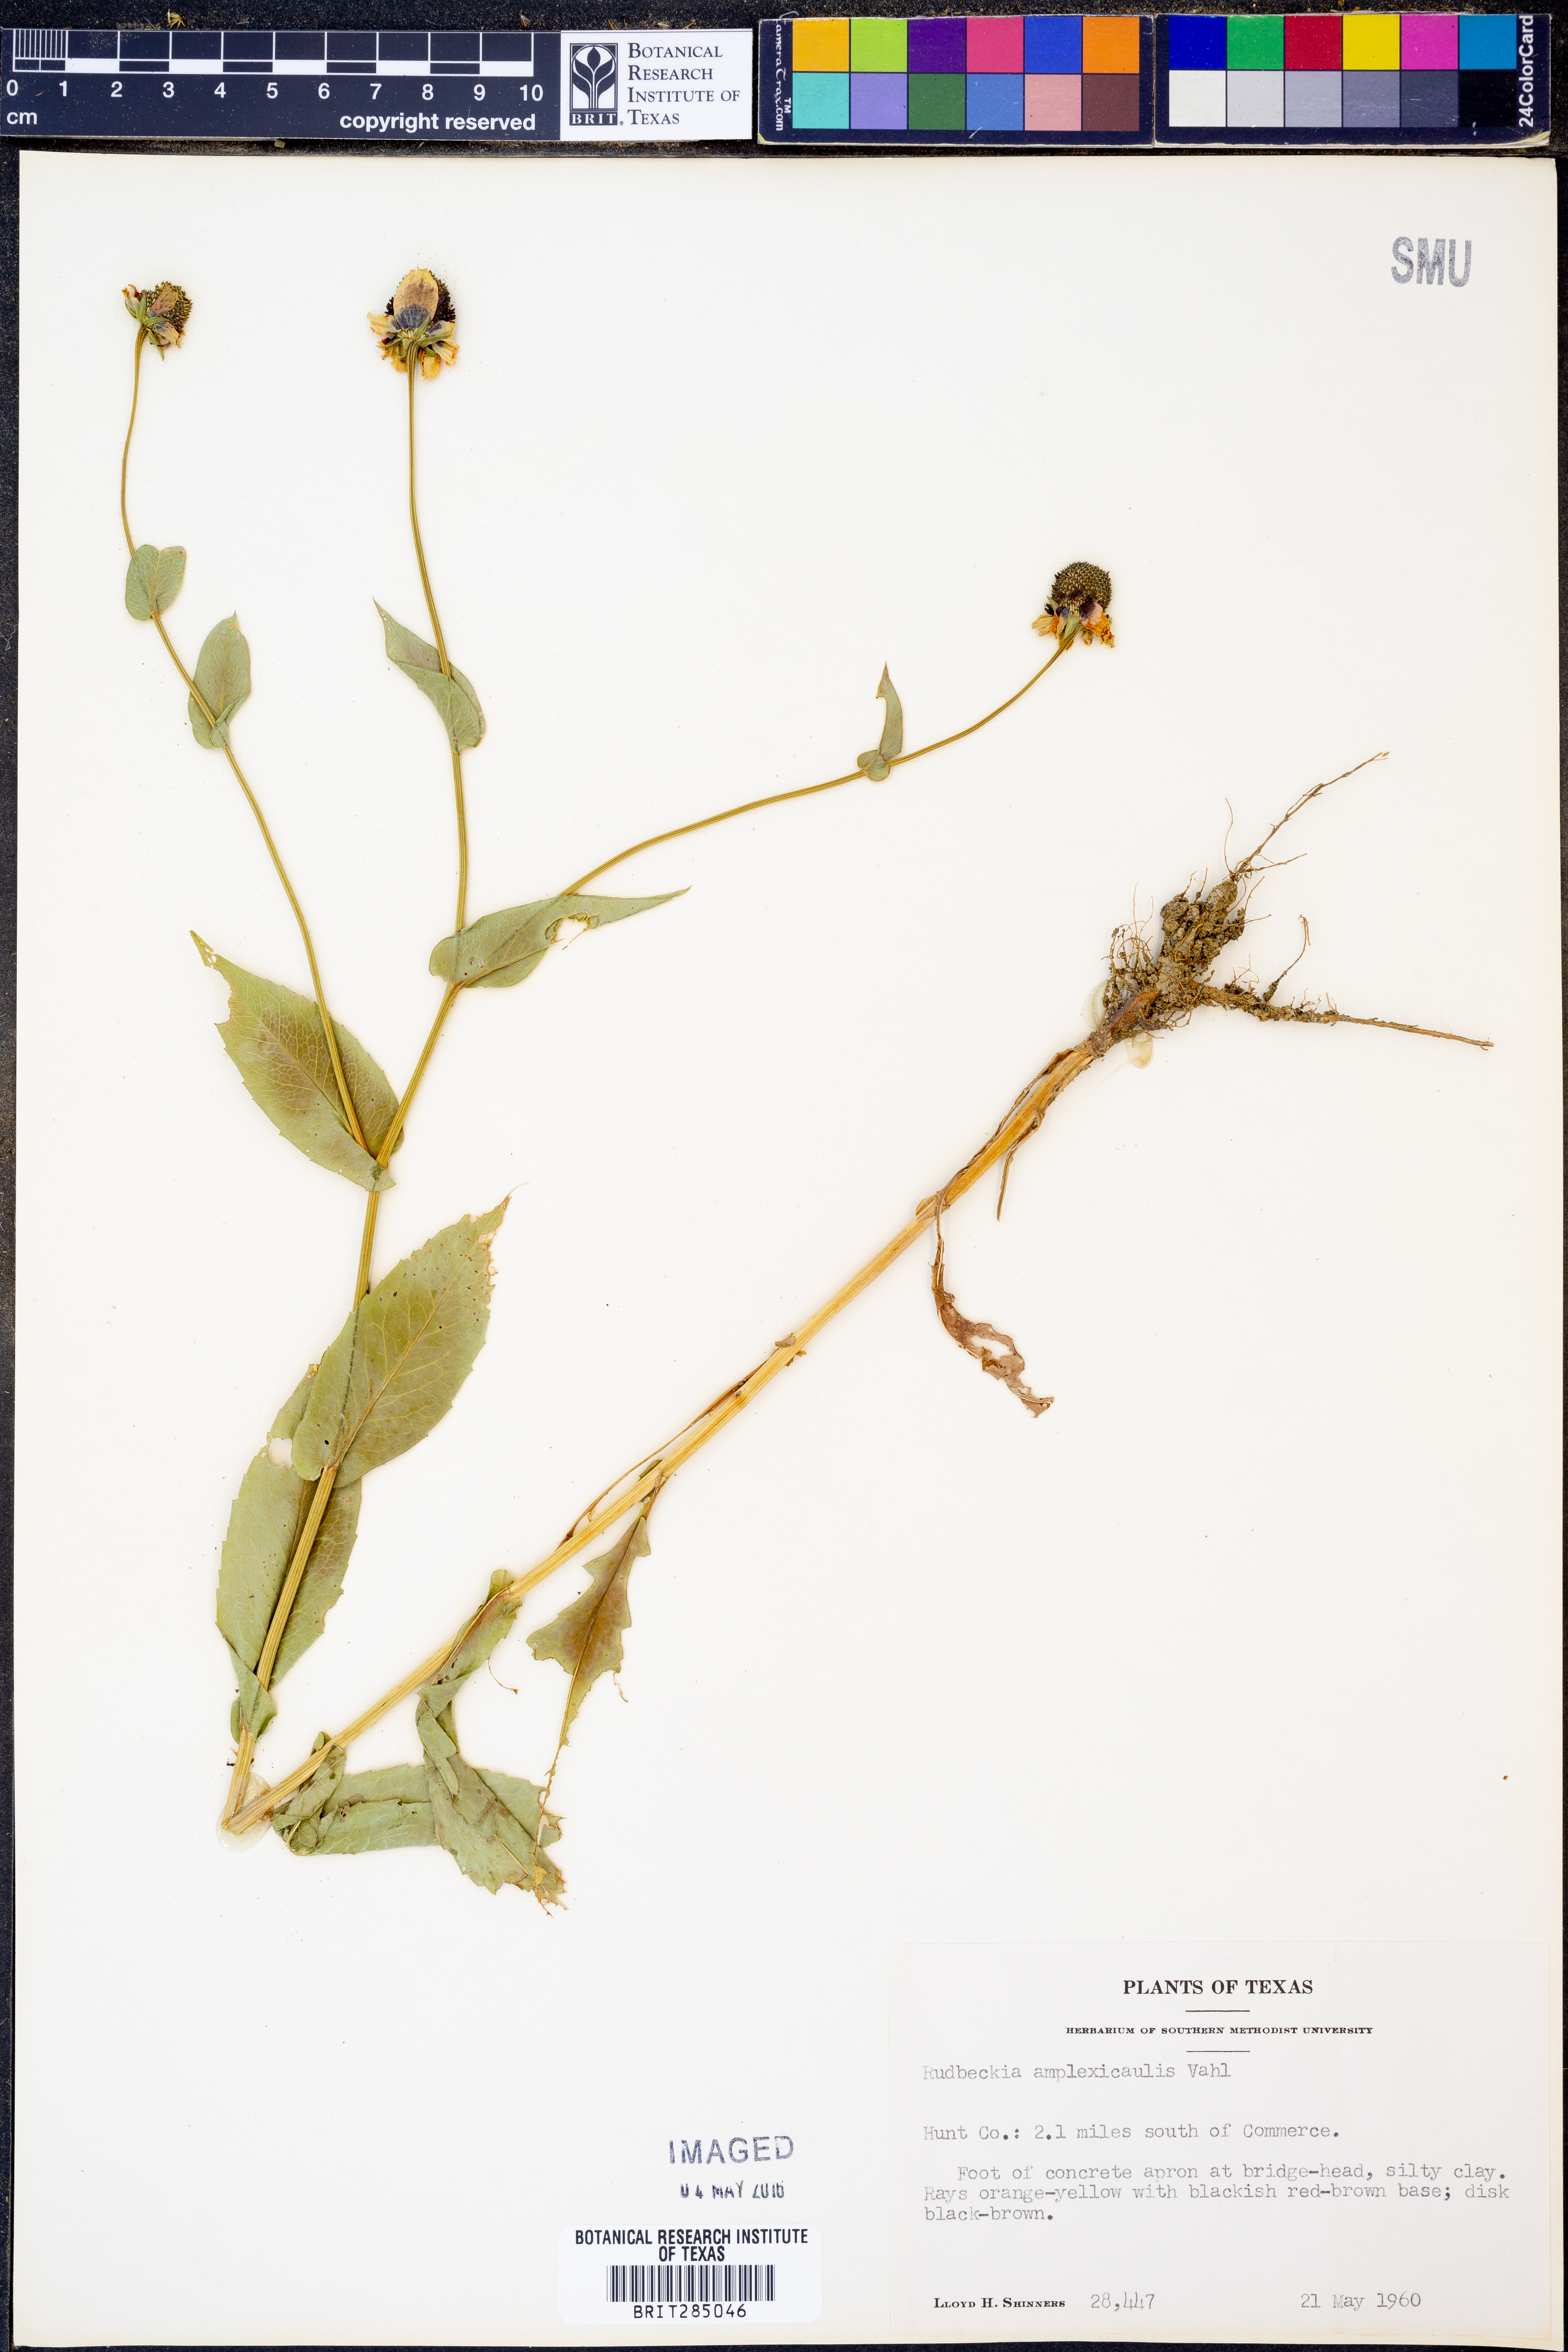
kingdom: Plantae
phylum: Tracheophyta
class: Magnoliopsida
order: Asterales
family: Asteraceae
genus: Rudbeckia
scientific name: Rudbeckia amplexicaulis
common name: Clasping-leaf coneflower
